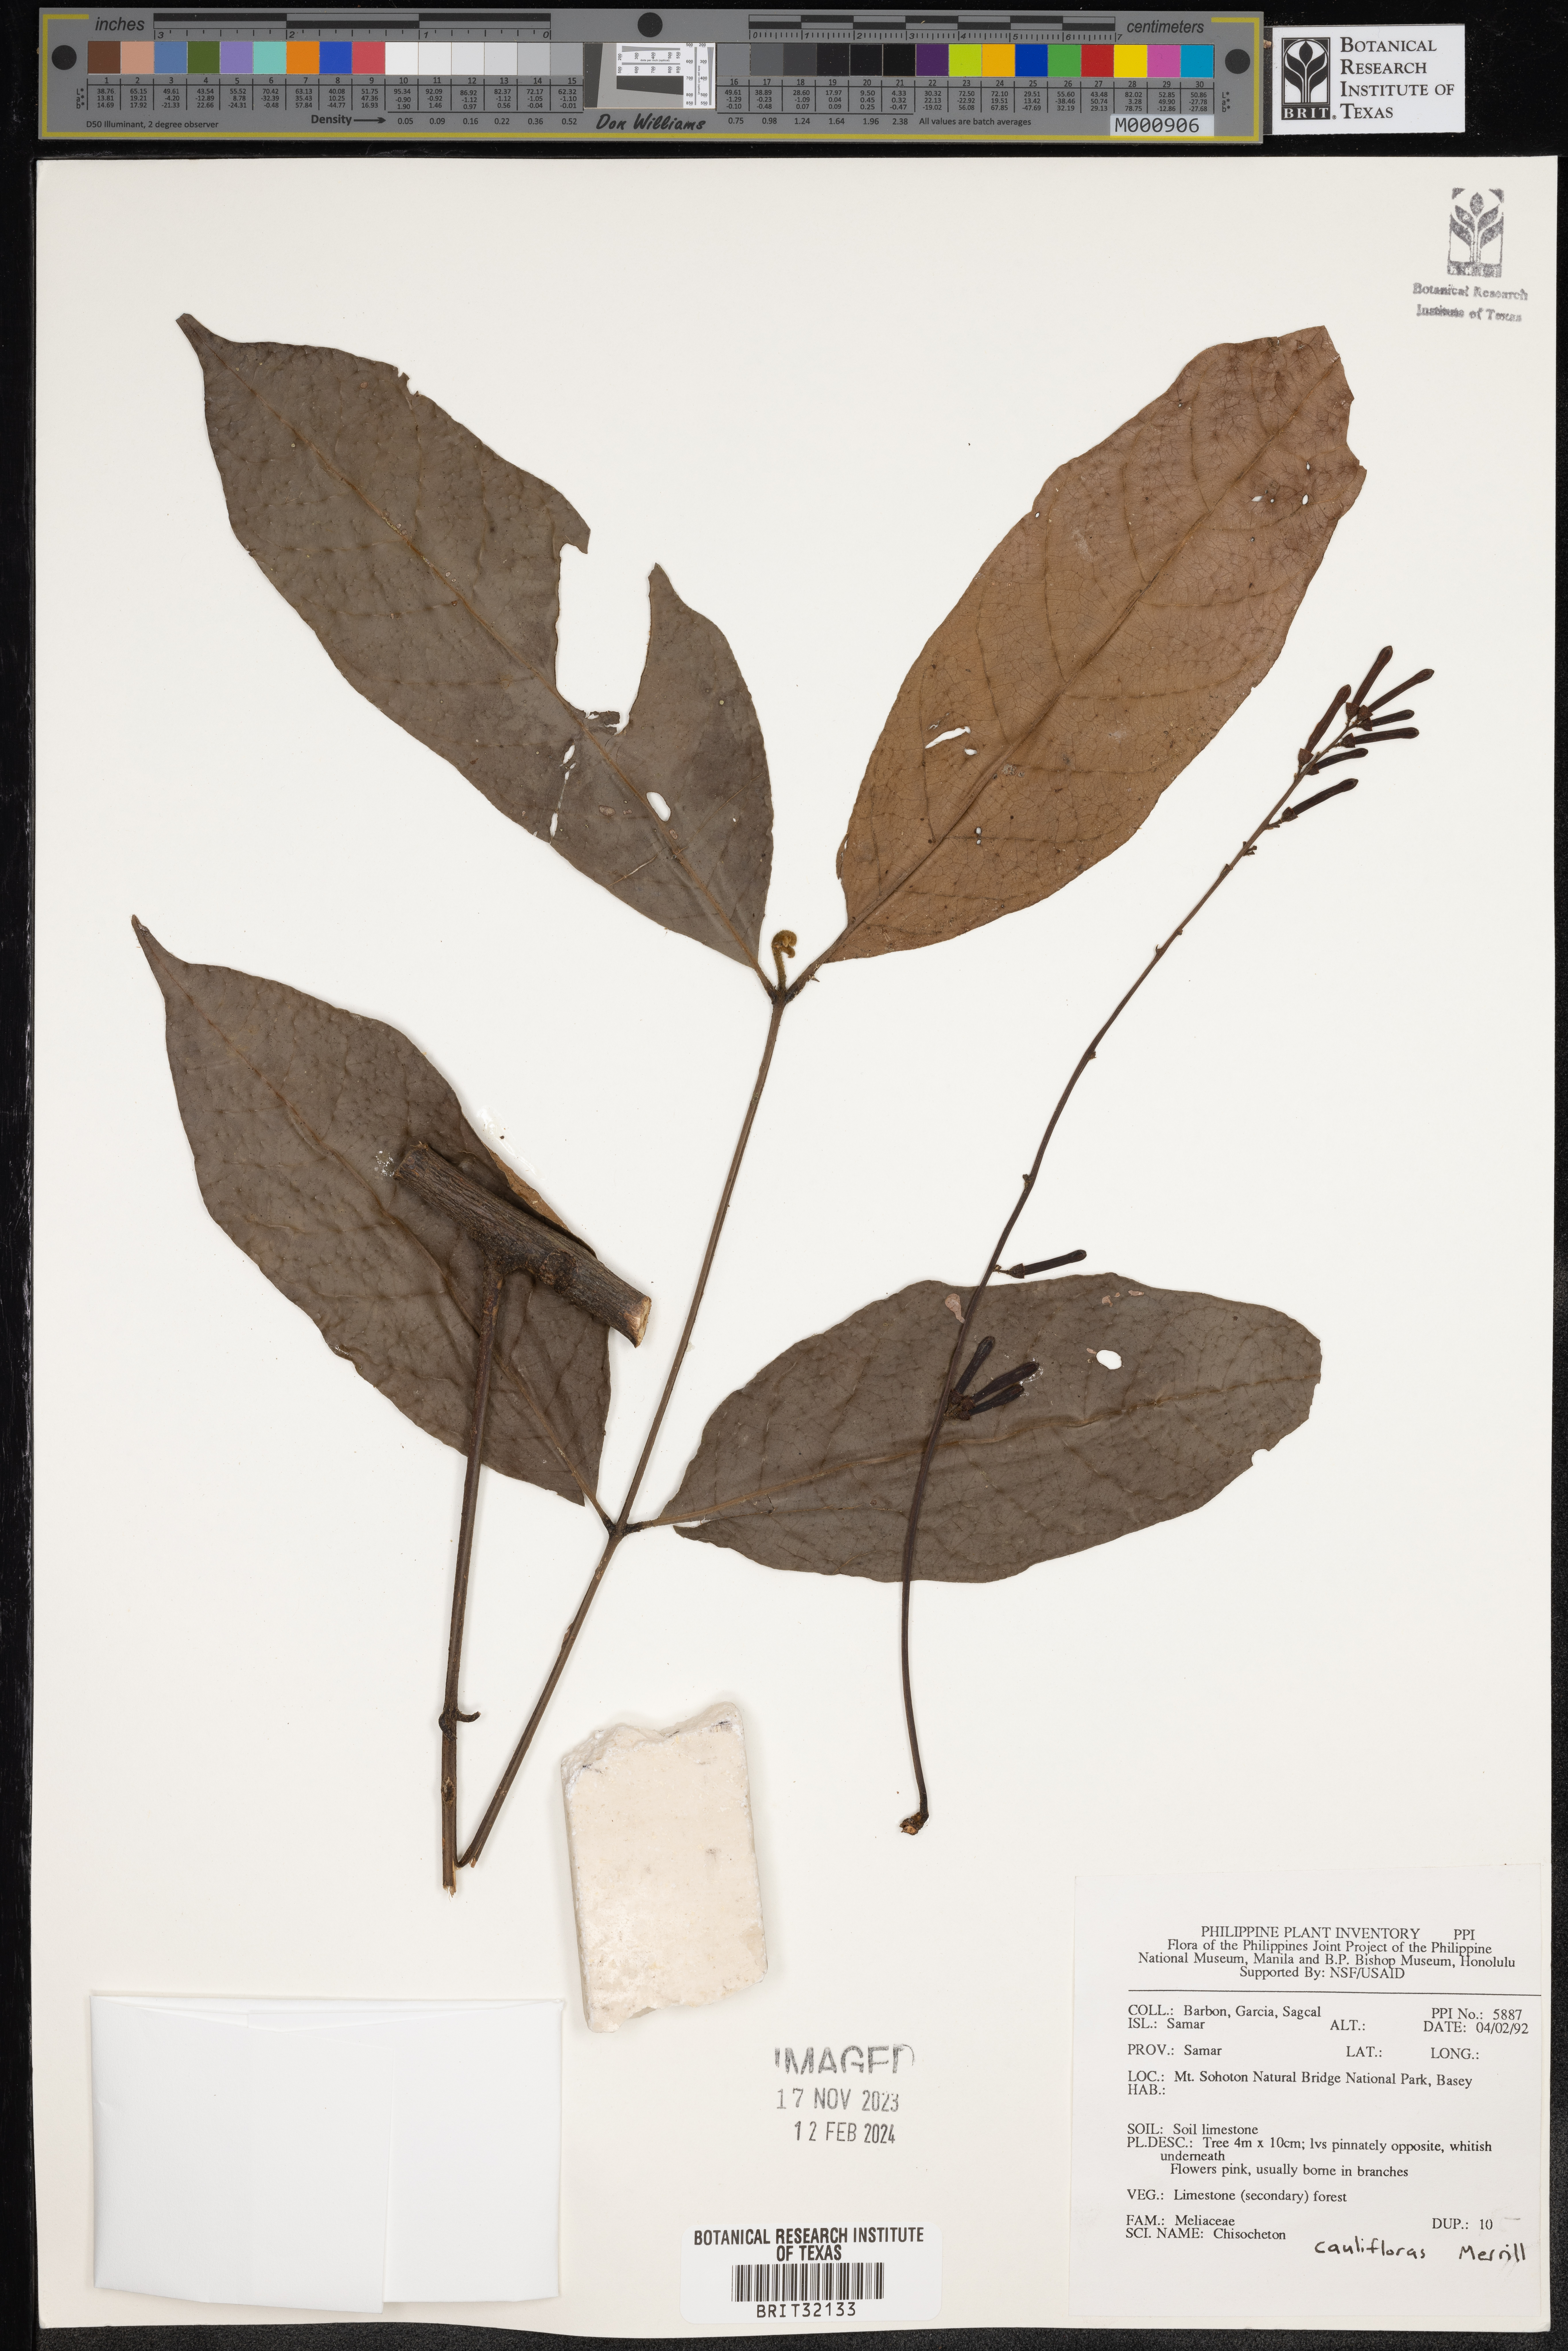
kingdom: Plantae
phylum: Tracheophyta
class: Magnoliopsida
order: Sapindales
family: Meliaceae
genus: Chisocheton
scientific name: Chisocheton
